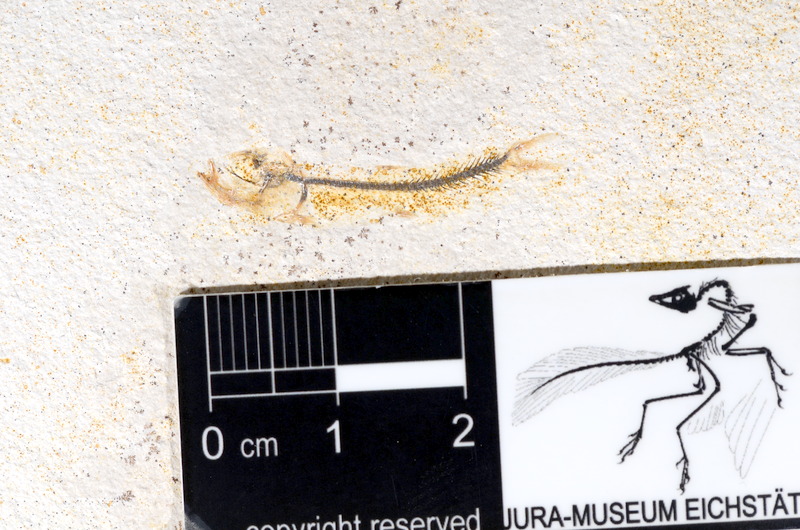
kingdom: Animalia
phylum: Chordata
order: Salmoniformes
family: Orthogonikleithridae
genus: Orthogonikleithrus
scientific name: Orthogonikleithrus hoelli
